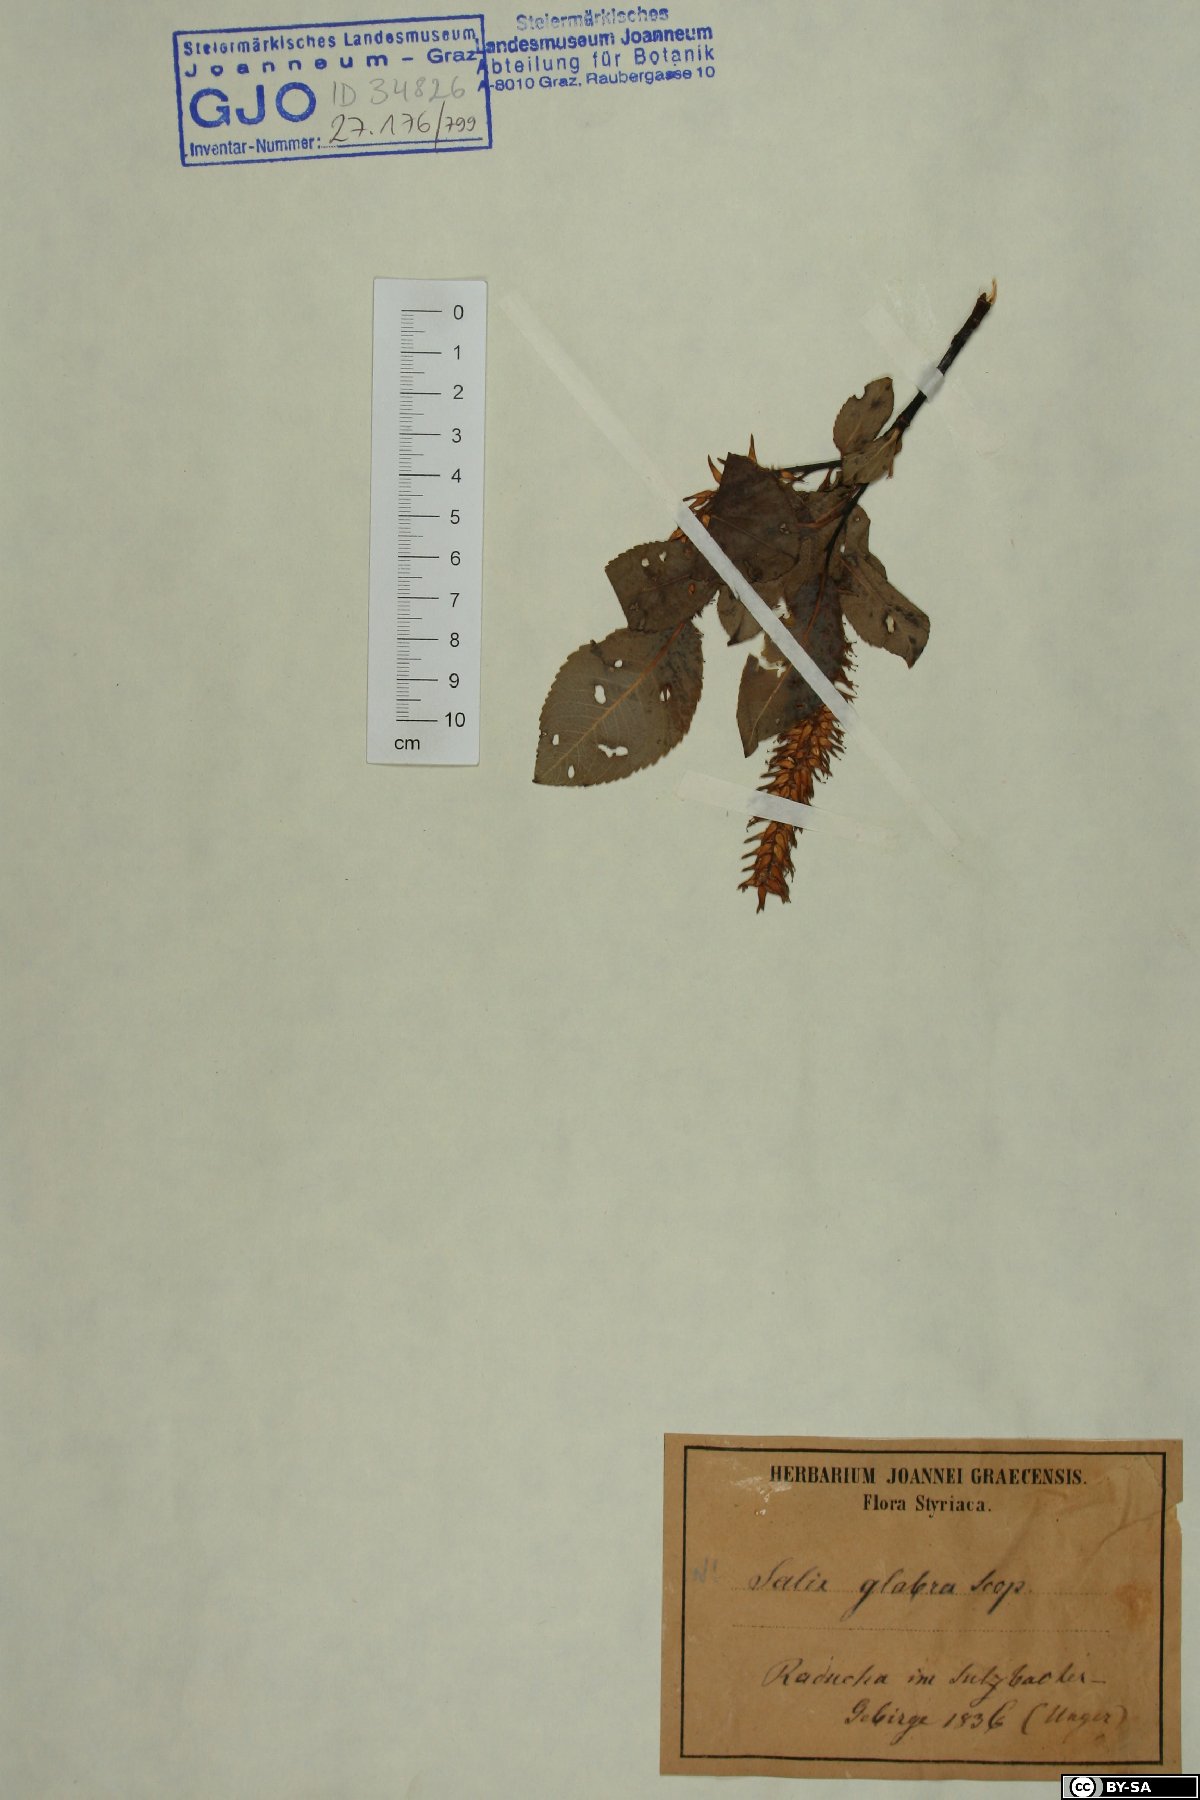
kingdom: Plantae
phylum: Tracheophyta
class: Magnoliopsida
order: Malpighiales
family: Salicaceae
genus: Salix
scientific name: Salix glabra
